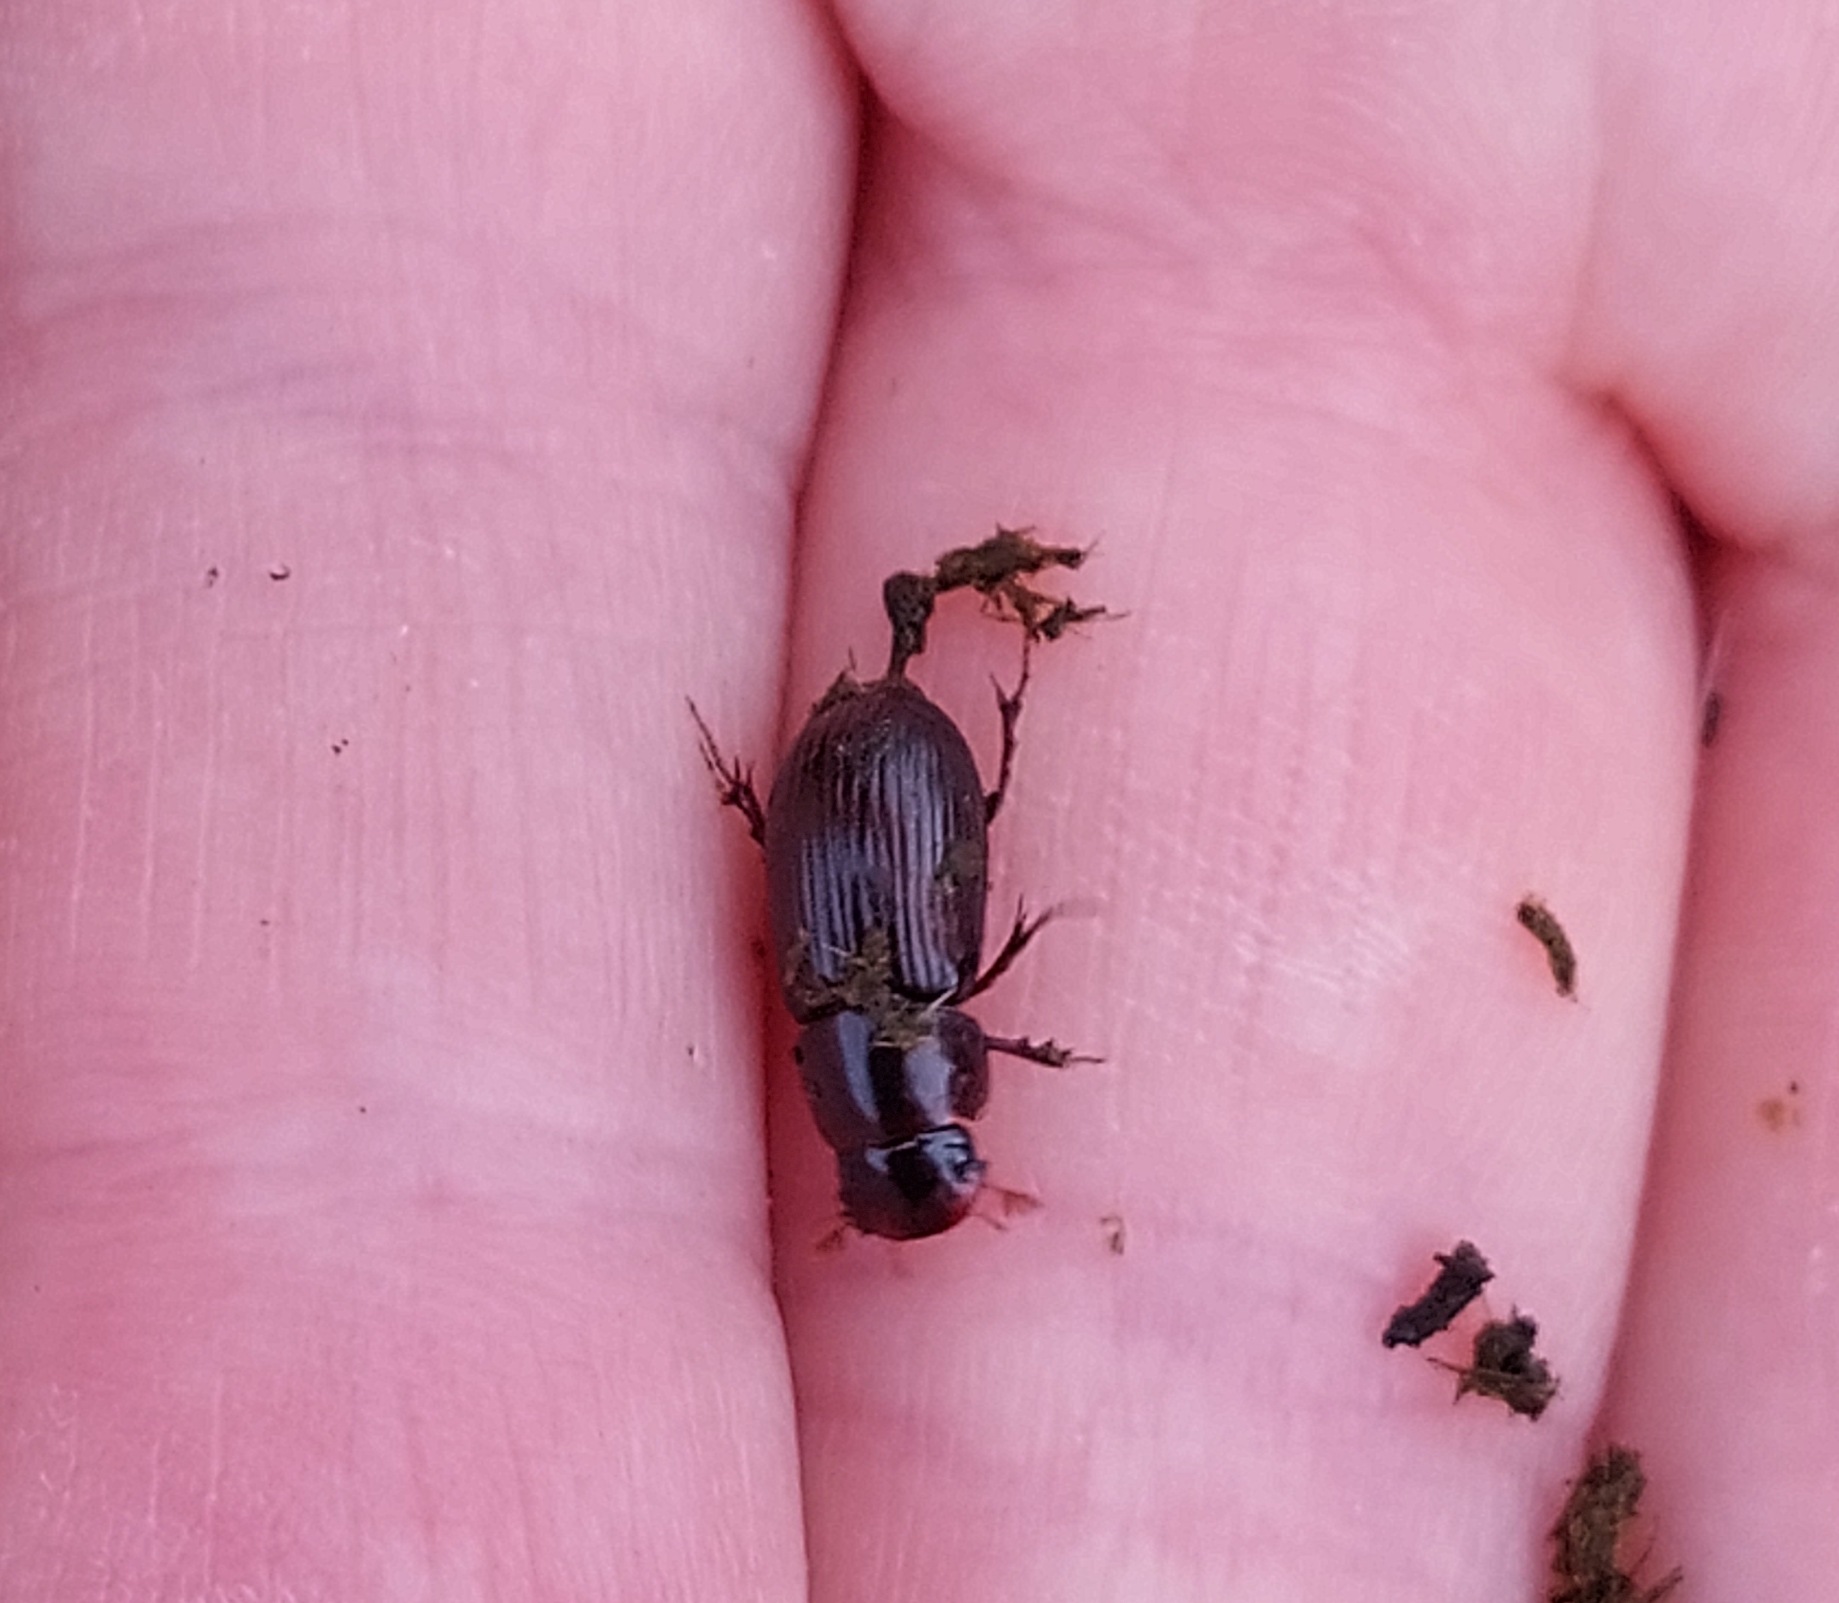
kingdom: Animalia
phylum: Arthropoda
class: Insecta
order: Coleoptera
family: Scarabaeidae
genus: Acrossus
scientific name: Acrossus rufipes
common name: Rødbenet møgbille
